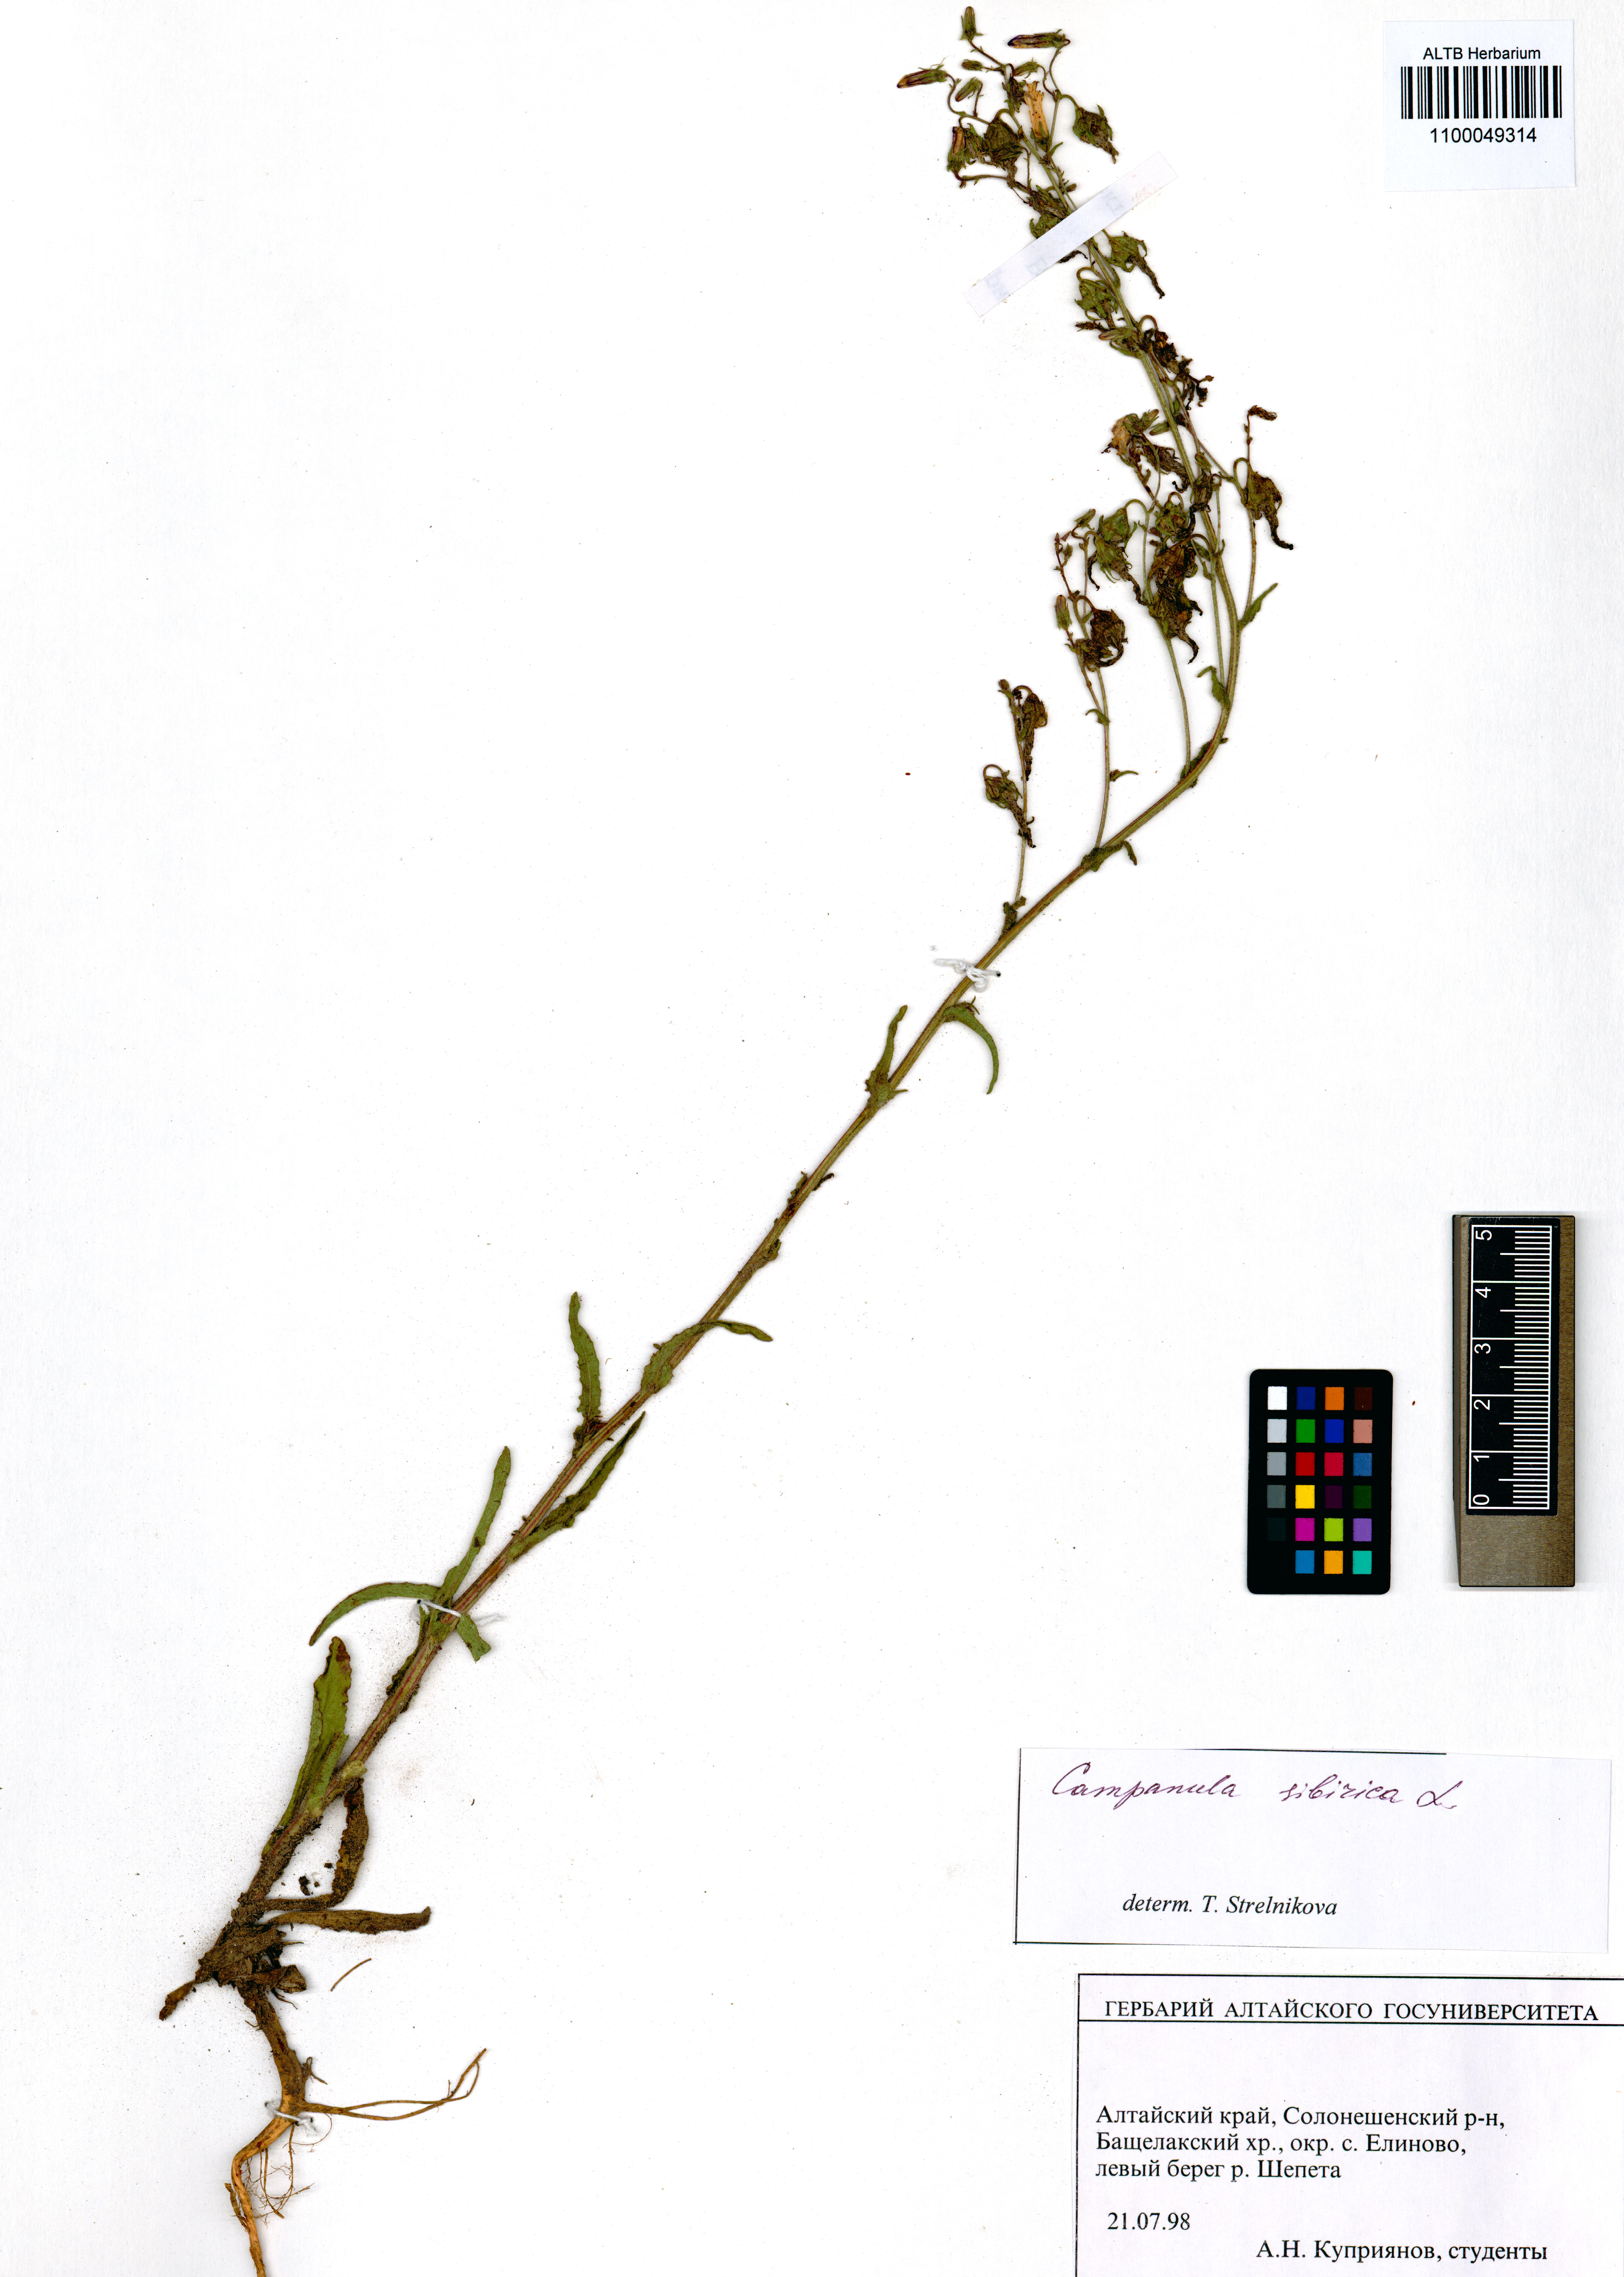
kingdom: Plantae
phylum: Tracheophyta
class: Magnoliopsida
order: Asterales
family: Campanulaceae
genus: Campanula
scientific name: Campanula sibirica
